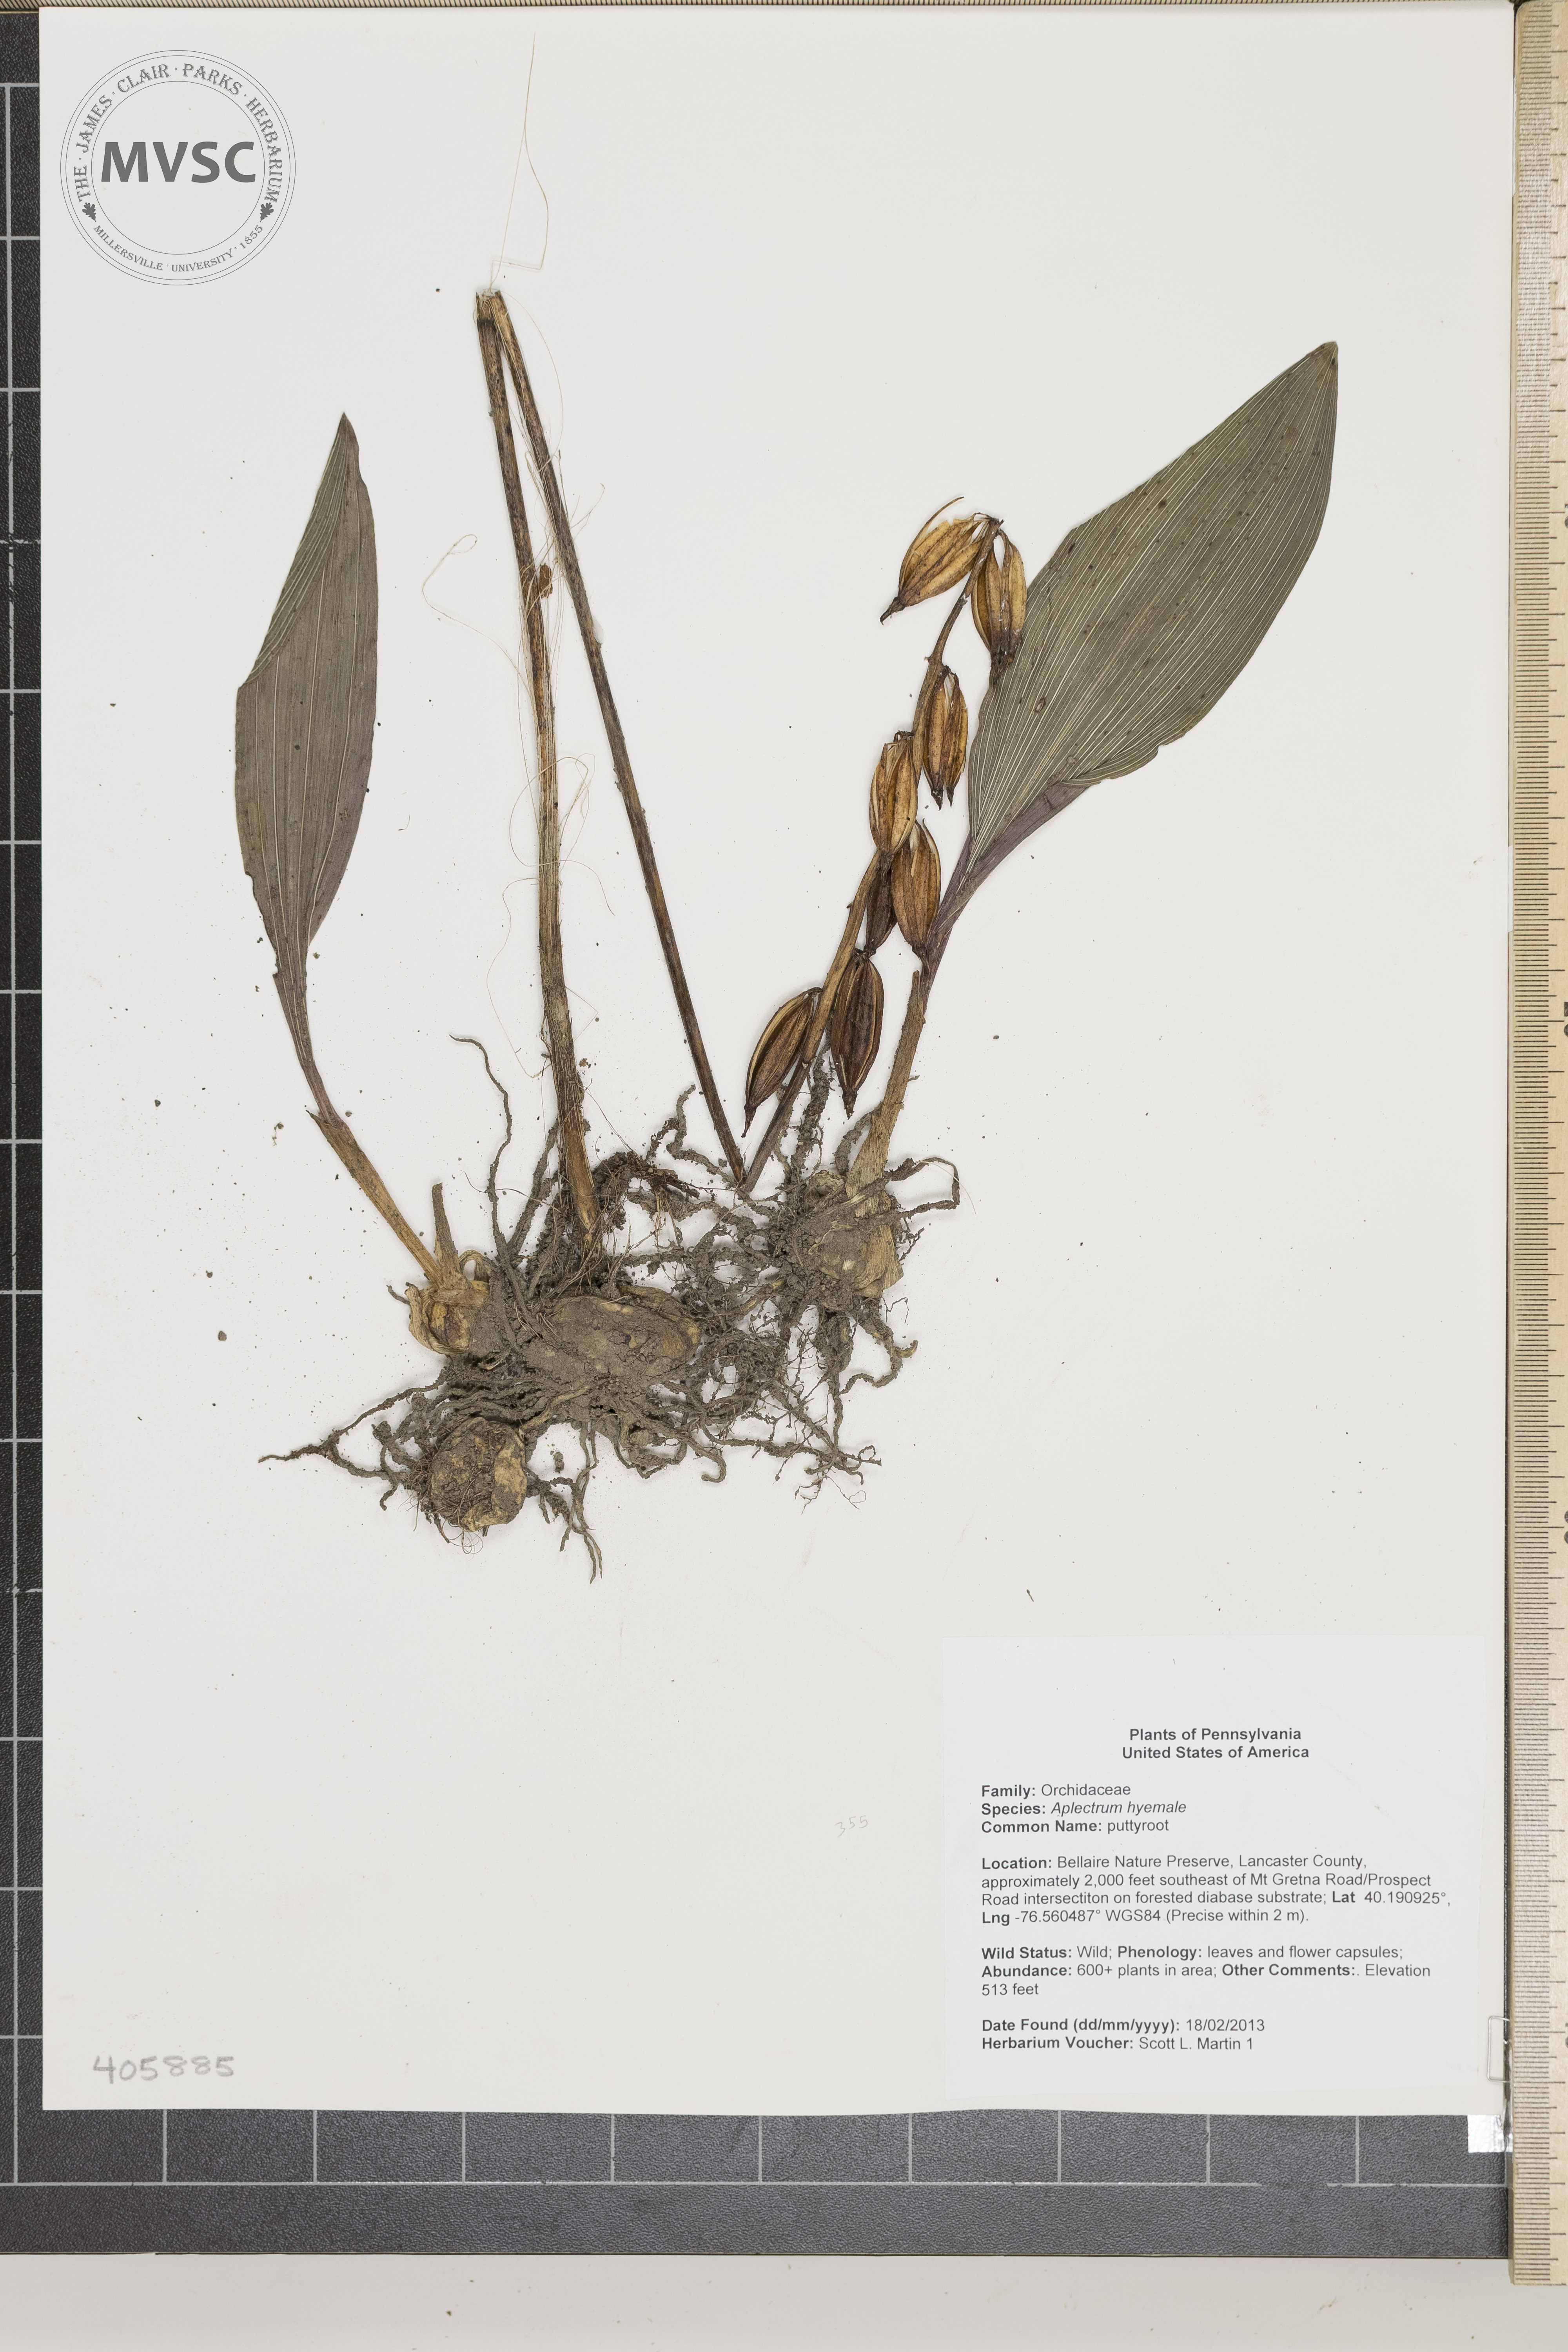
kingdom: Plantae
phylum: Tracheophyta
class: Liliopsida
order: Asparagales
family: Orchidaceae
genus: Aplectrum
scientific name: Aplectrum hyemale
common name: puttyroot
